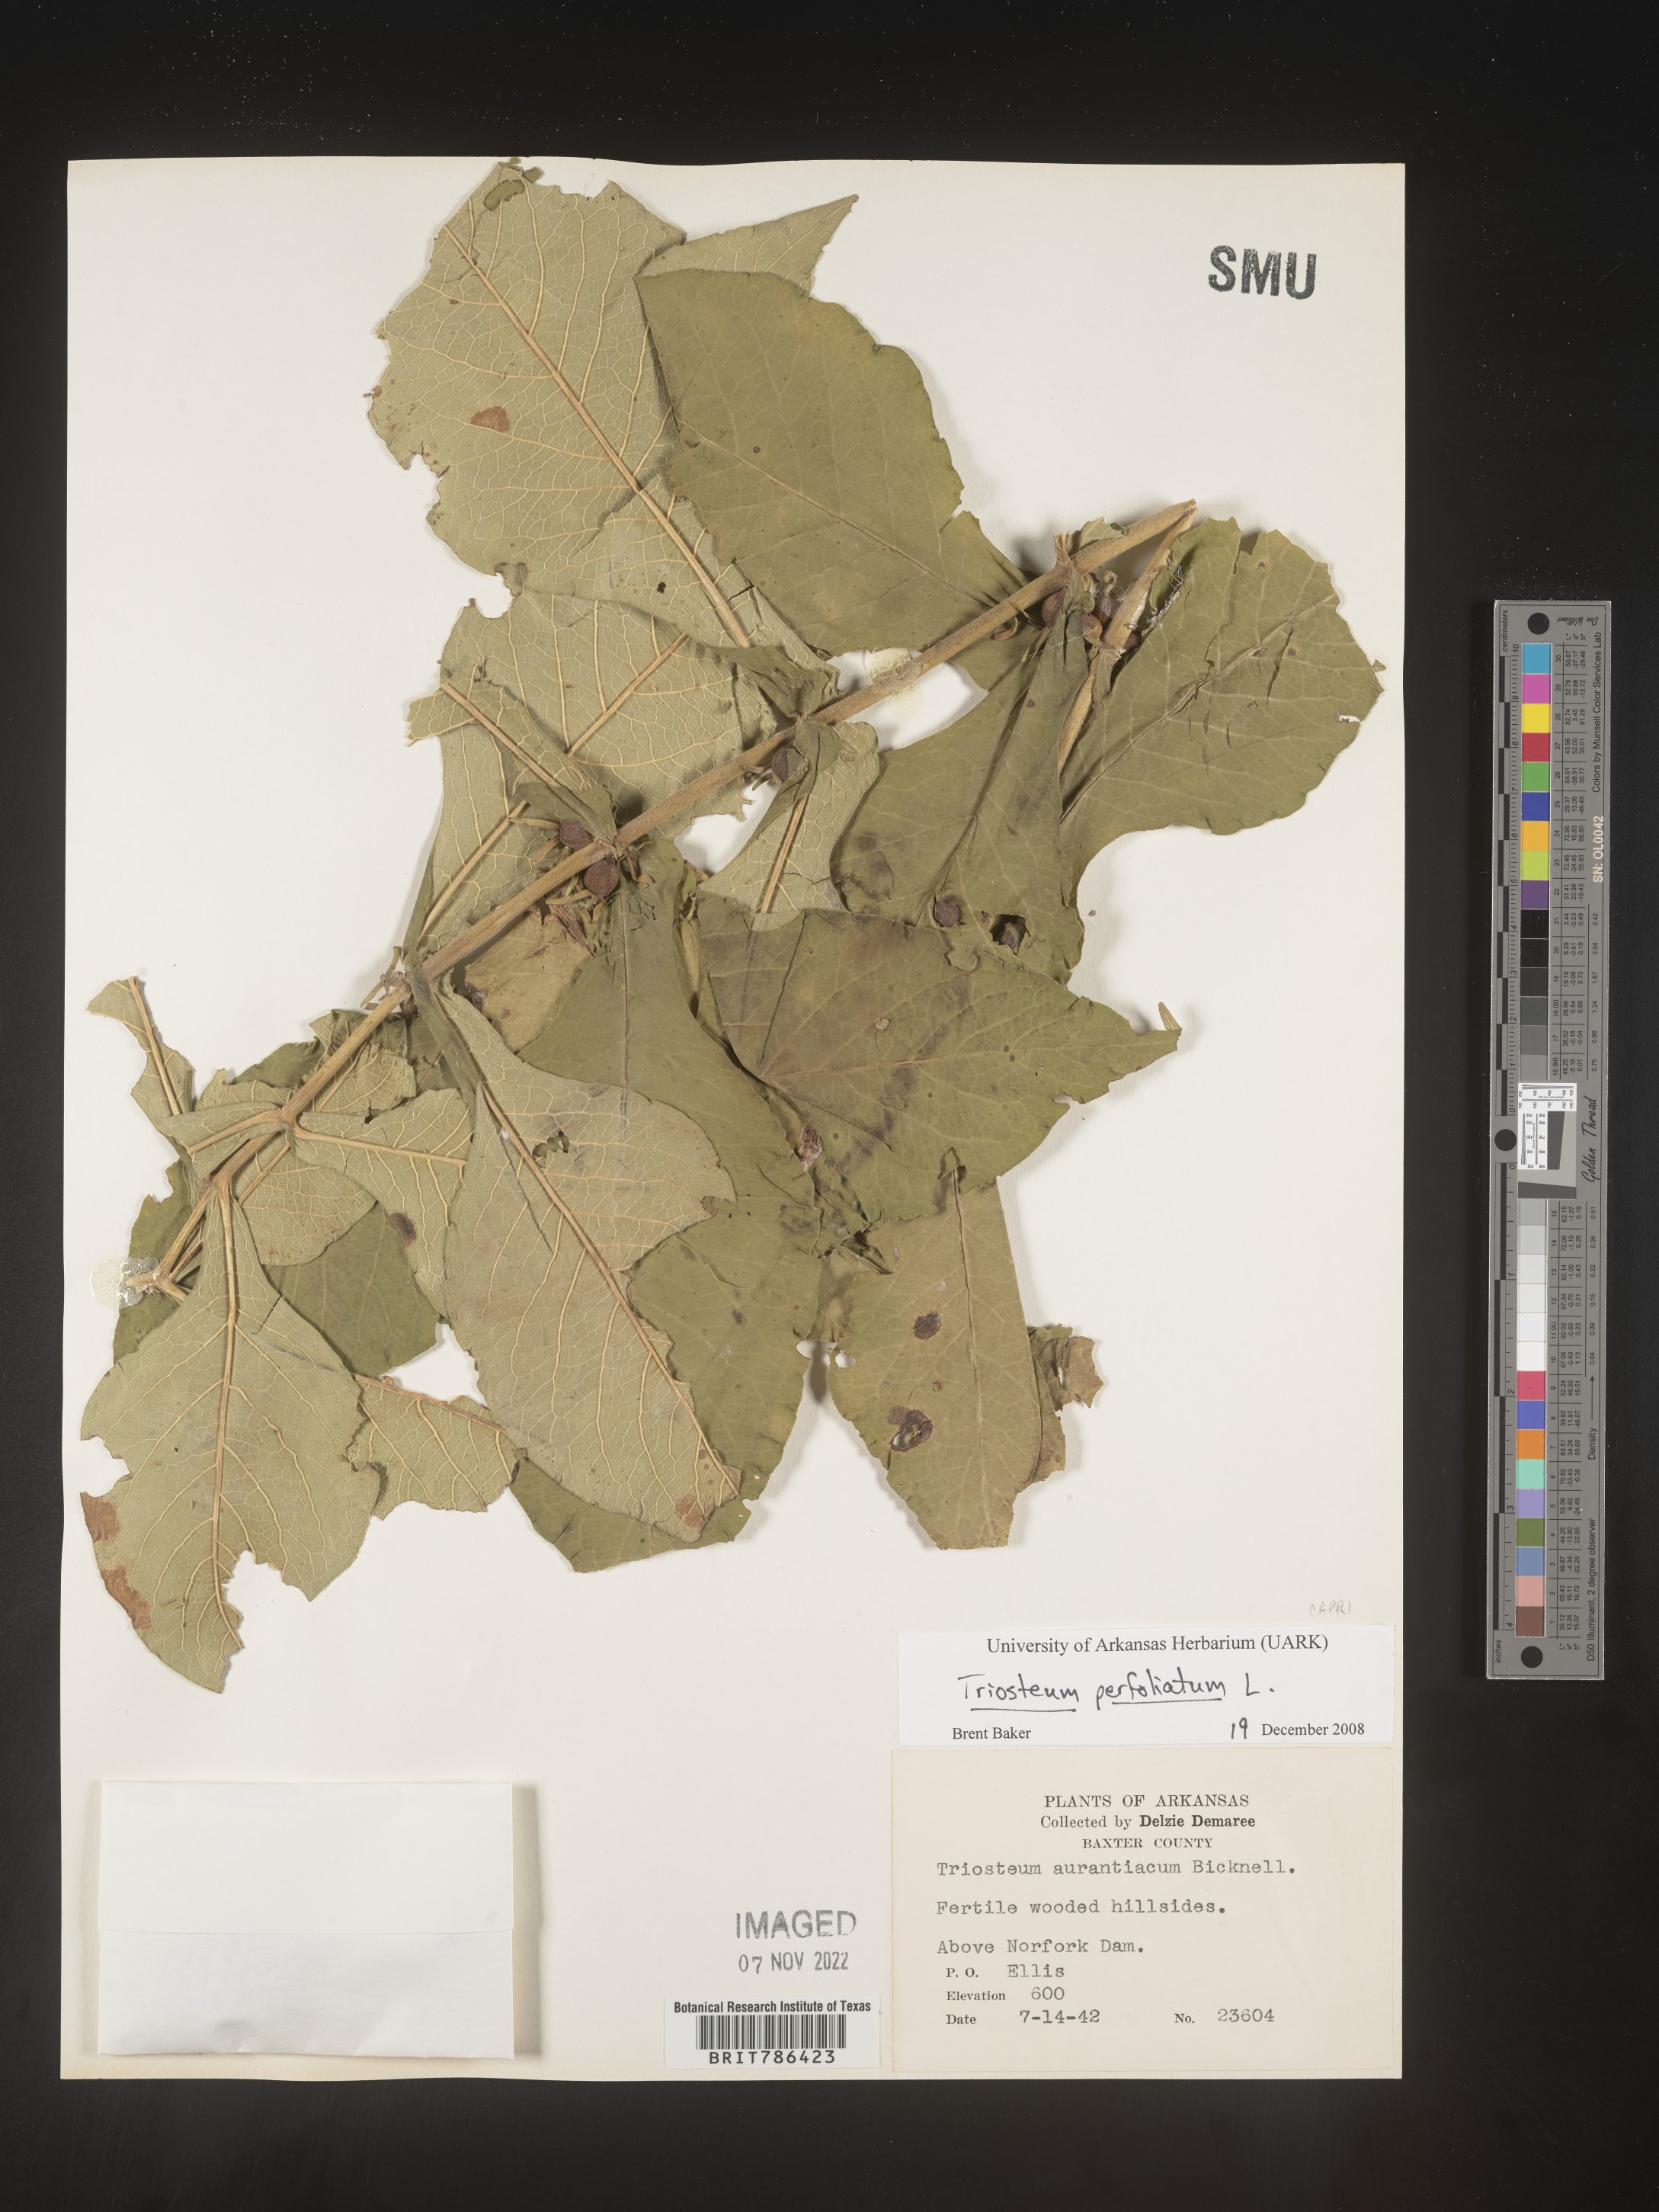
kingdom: Plantae
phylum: Tracheophyta
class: Magnoliopsida
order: Dipsacales
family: Caprifoliaceae
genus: Triosteum
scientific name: Triosteum perfoliatum
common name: Common horse-gentian
